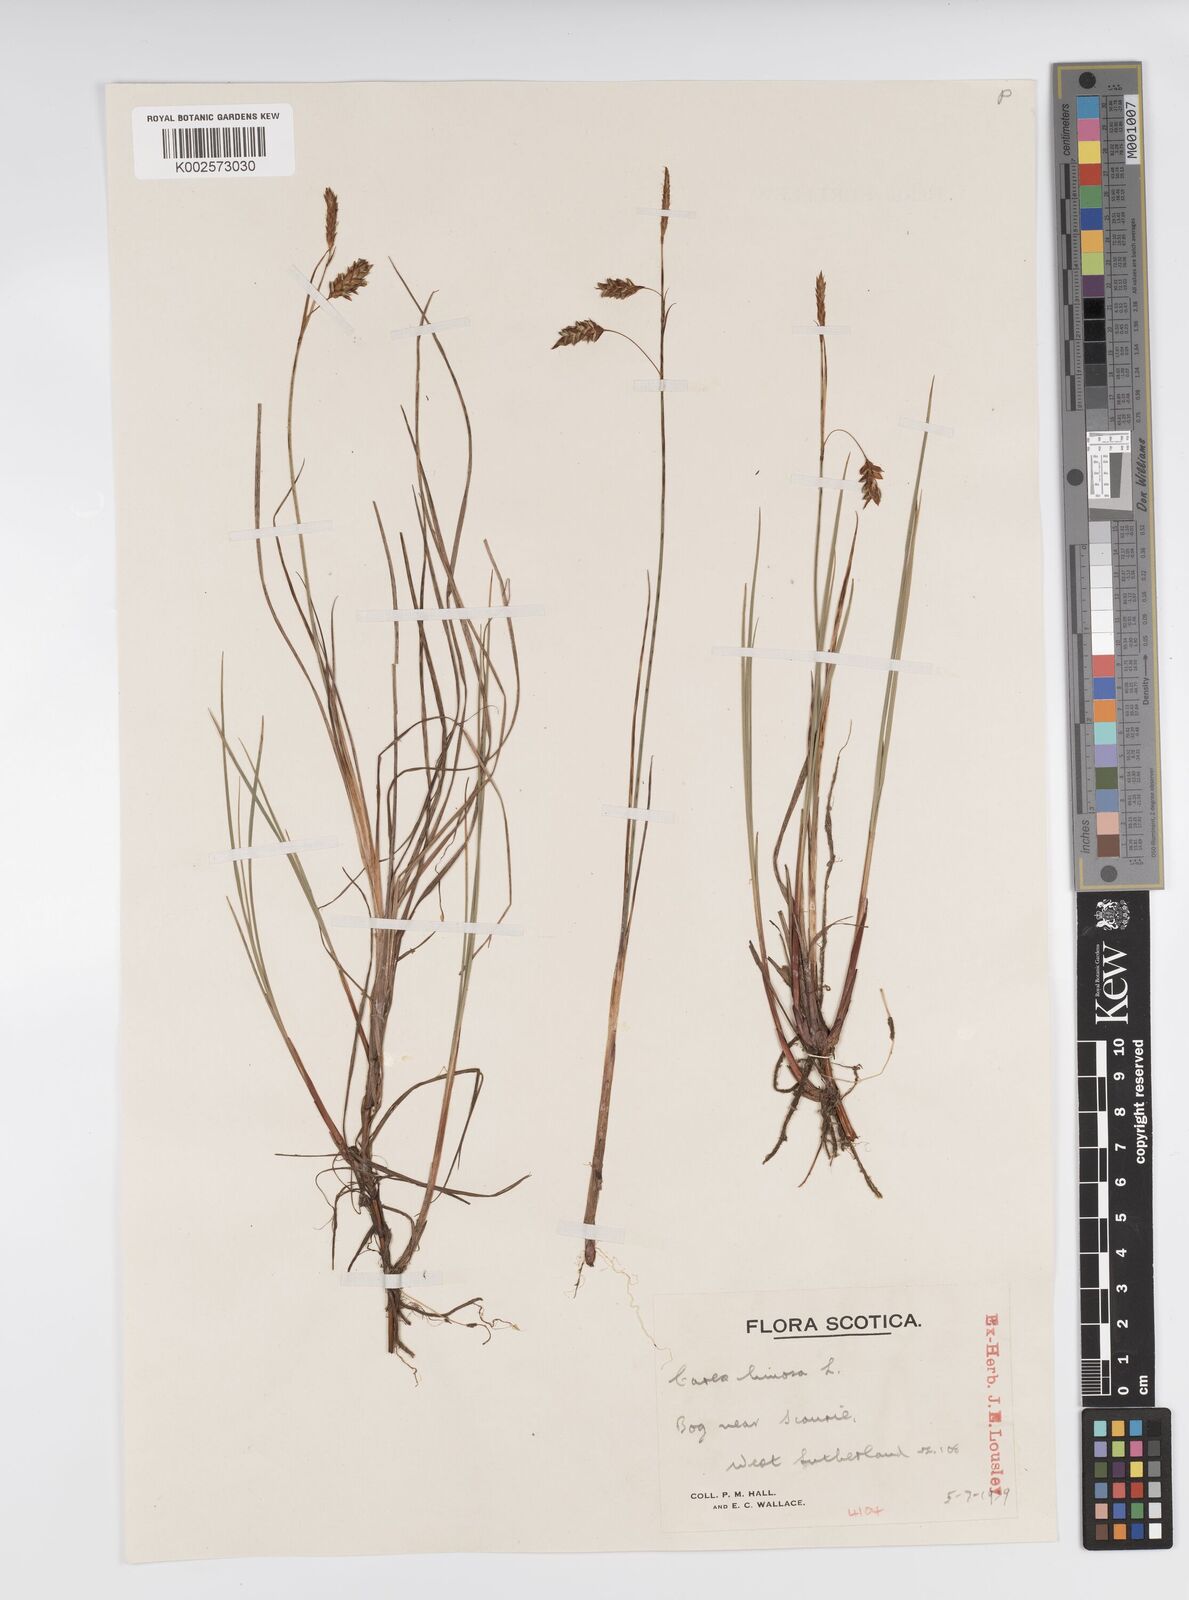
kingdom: Plantae
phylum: Tracheophyta
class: Liliopsida
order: Poales
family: Cyperaceae
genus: Carex
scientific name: Carex limosa
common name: Bog sedge
